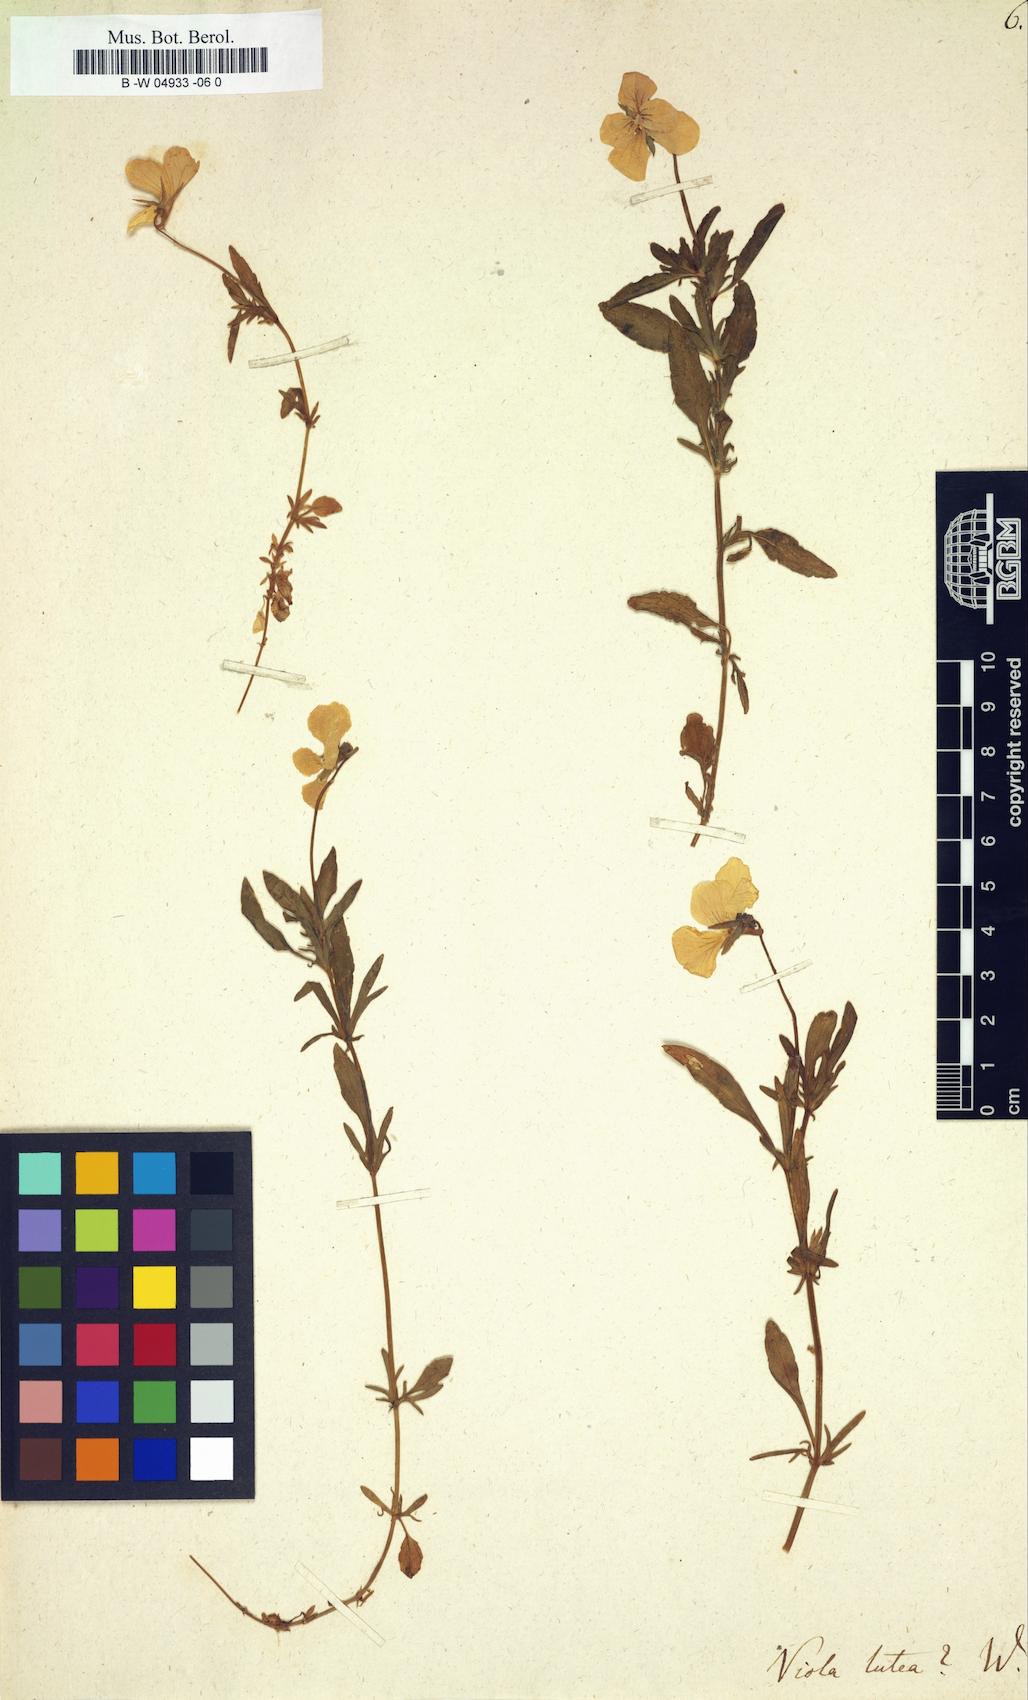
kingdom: Plantae
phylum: Tracheophyta
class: Magnoliopsida
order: Malpighiales
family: Violaceae
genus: Viola
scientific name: Viola lutea
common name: Mountain pansy
